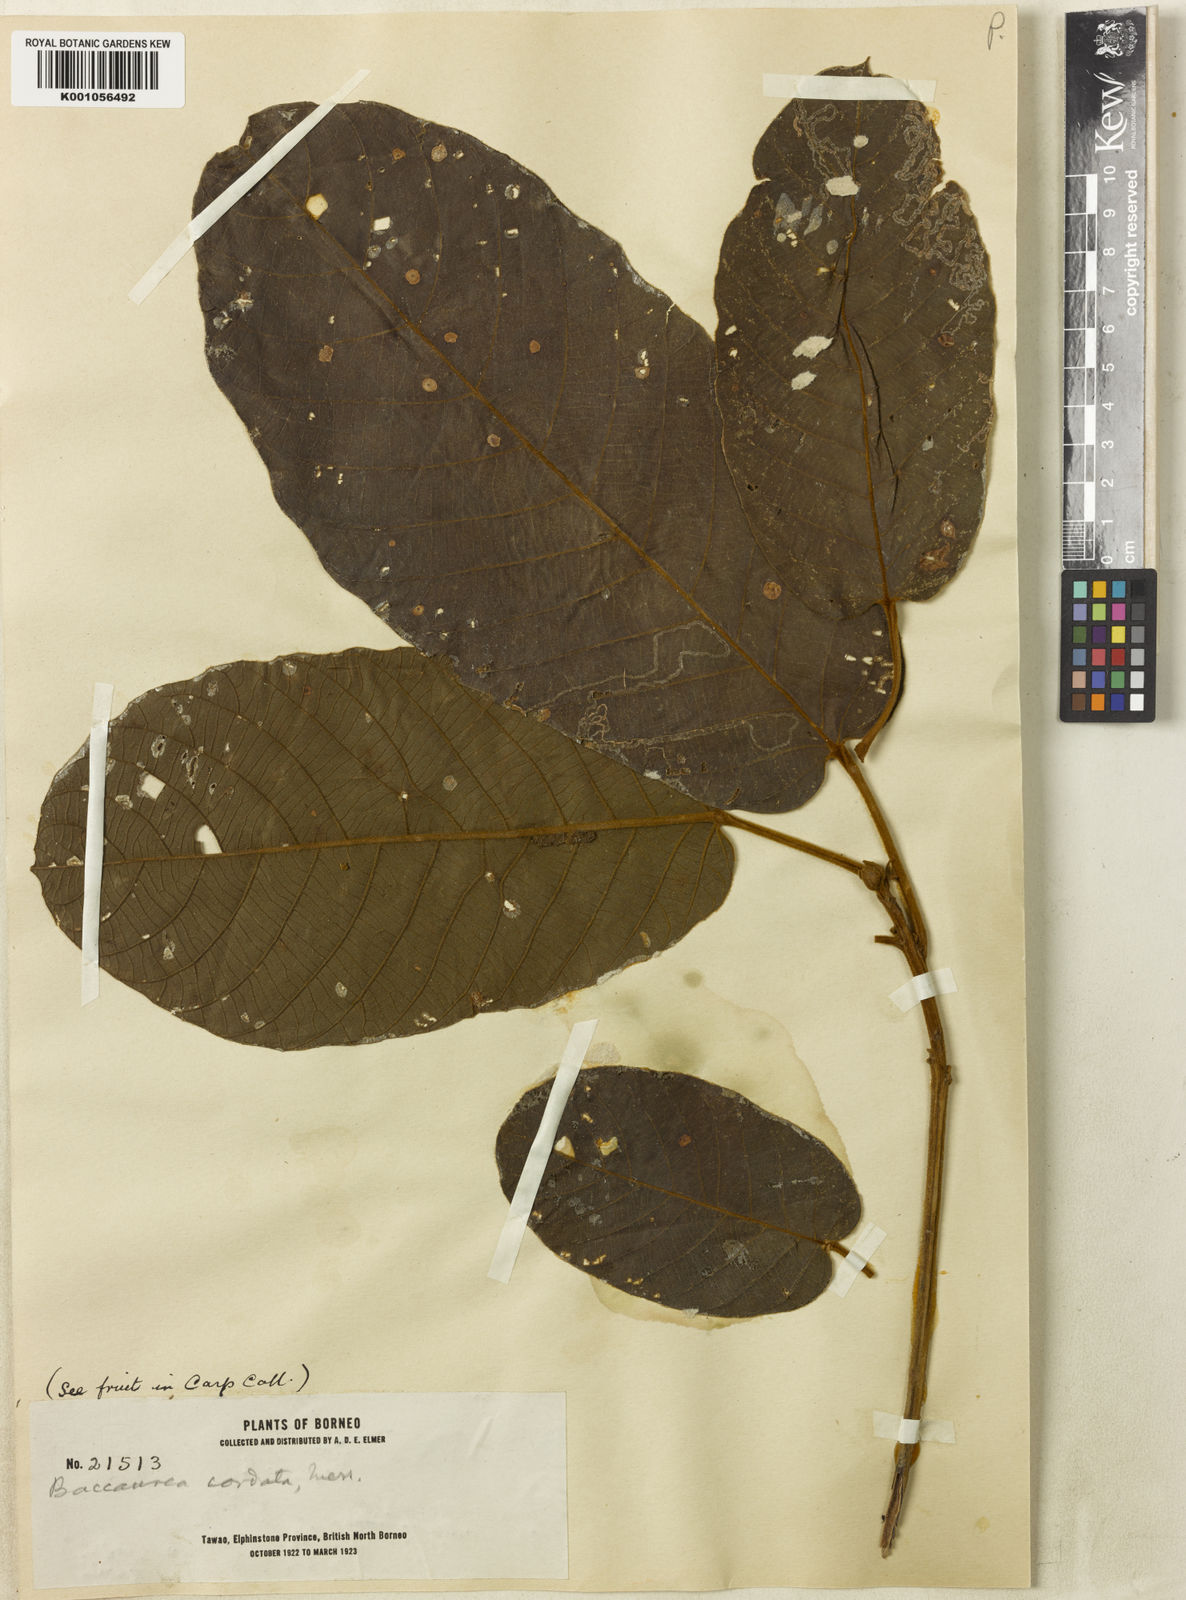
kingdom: Plantae
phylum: Tracheophyta
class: Magnoliopsida
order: Malpighiales
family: Phyllanthaceae
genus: Baccaurea
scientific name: Baccaurea polyneura
